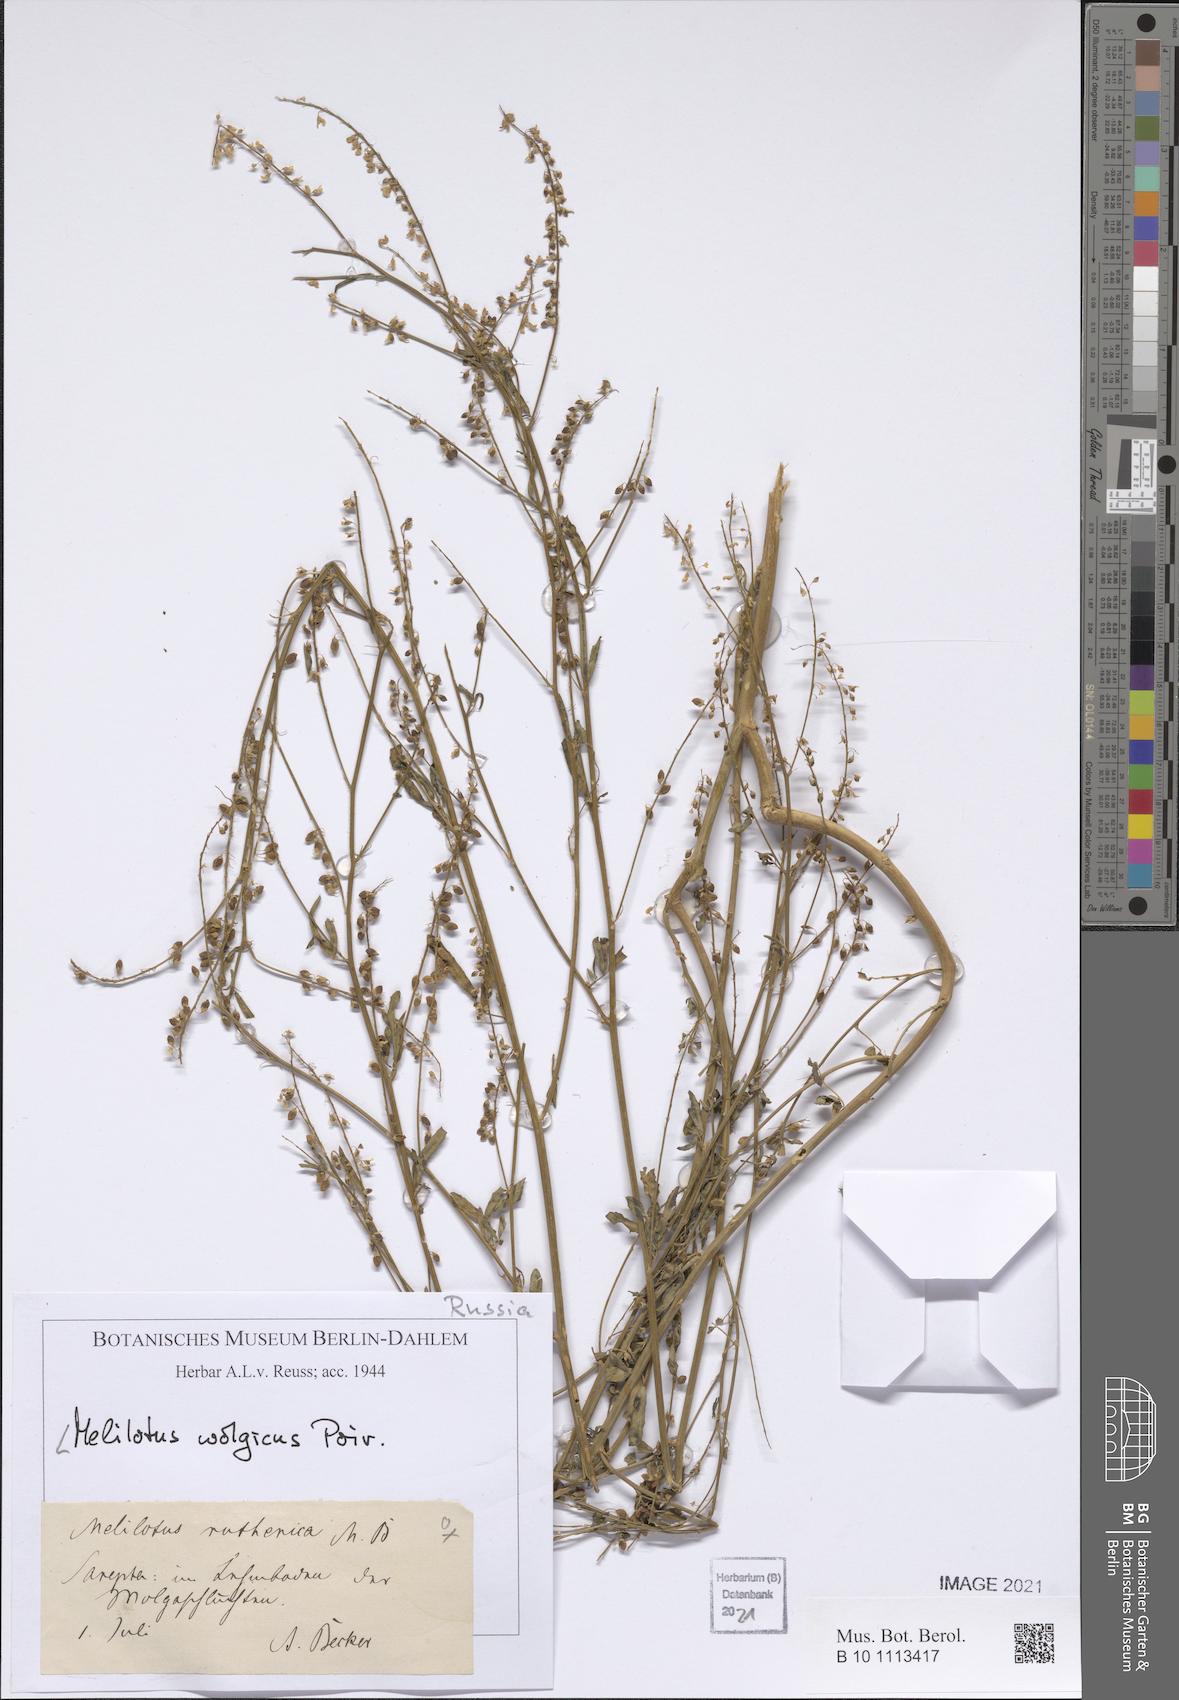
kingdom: Plantae
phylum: Tracheophyta
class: Magnoliopsida
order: Fabales
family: Fabaceae
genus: Melilotus
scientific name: Melilotus wolgicus
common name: Volga sweet-clover
